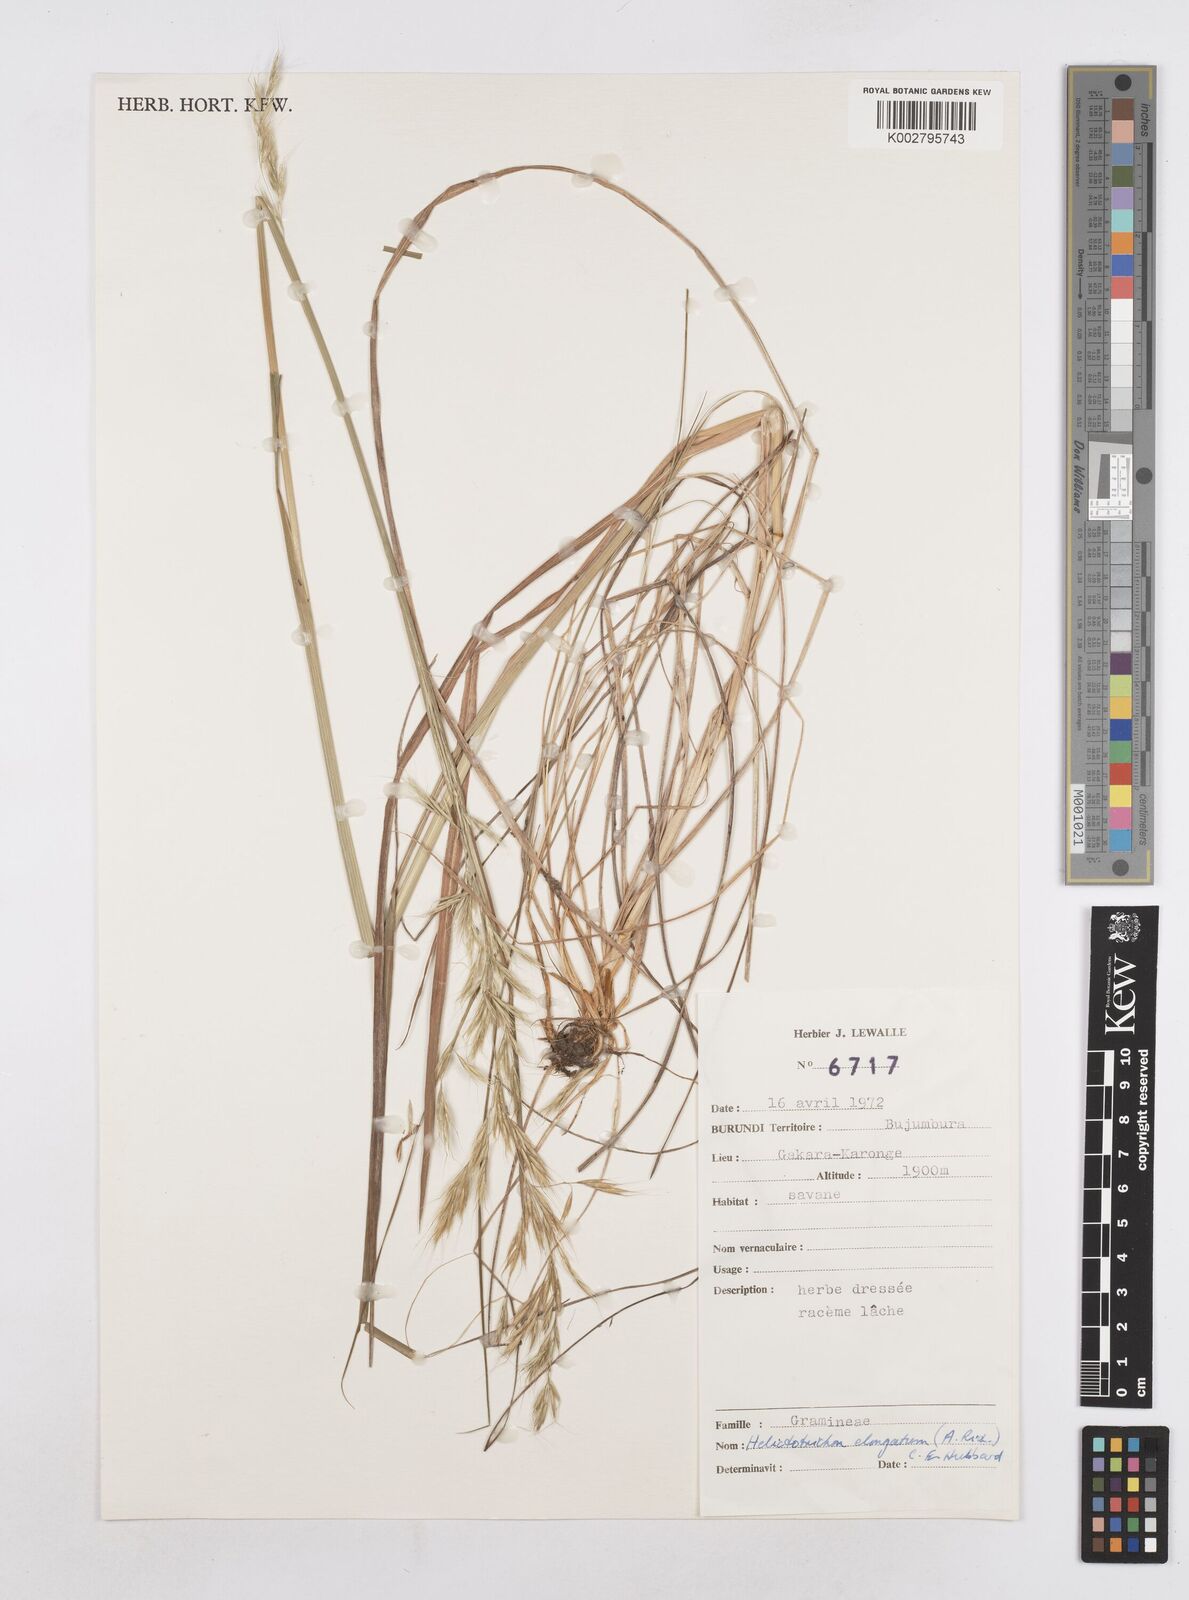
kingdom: Plantae
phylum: Tracheophyta
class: Liliopsida
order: Poales
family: Poaceae
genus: Trisetopsis
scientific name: Trisetopsis elongata
